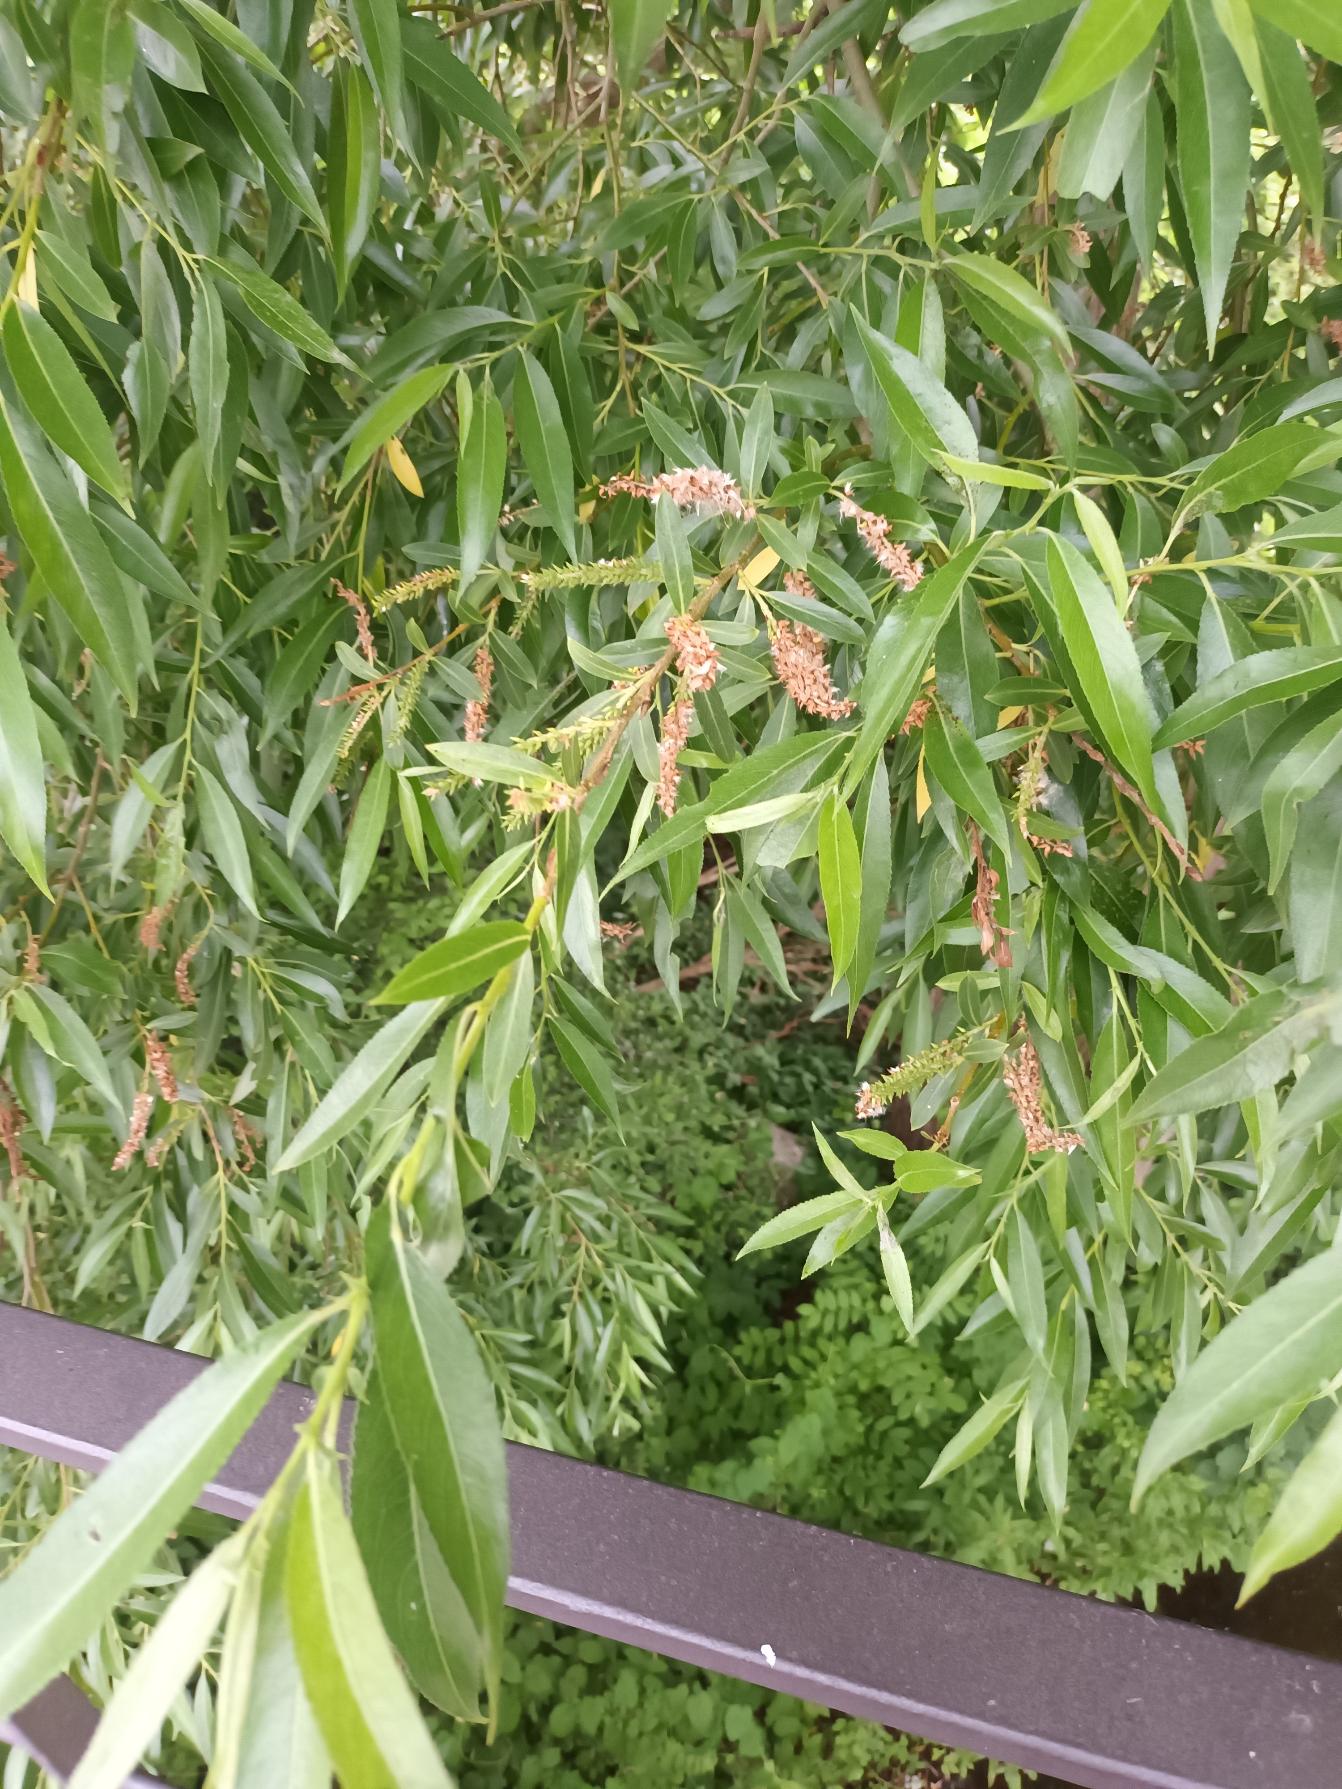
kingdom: Plantae
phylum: Tracheophyta
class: Magnoliopsida
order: Malpighiales
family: Salicaceae
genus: Salix
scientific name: Salix alba
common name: Skør-pil
